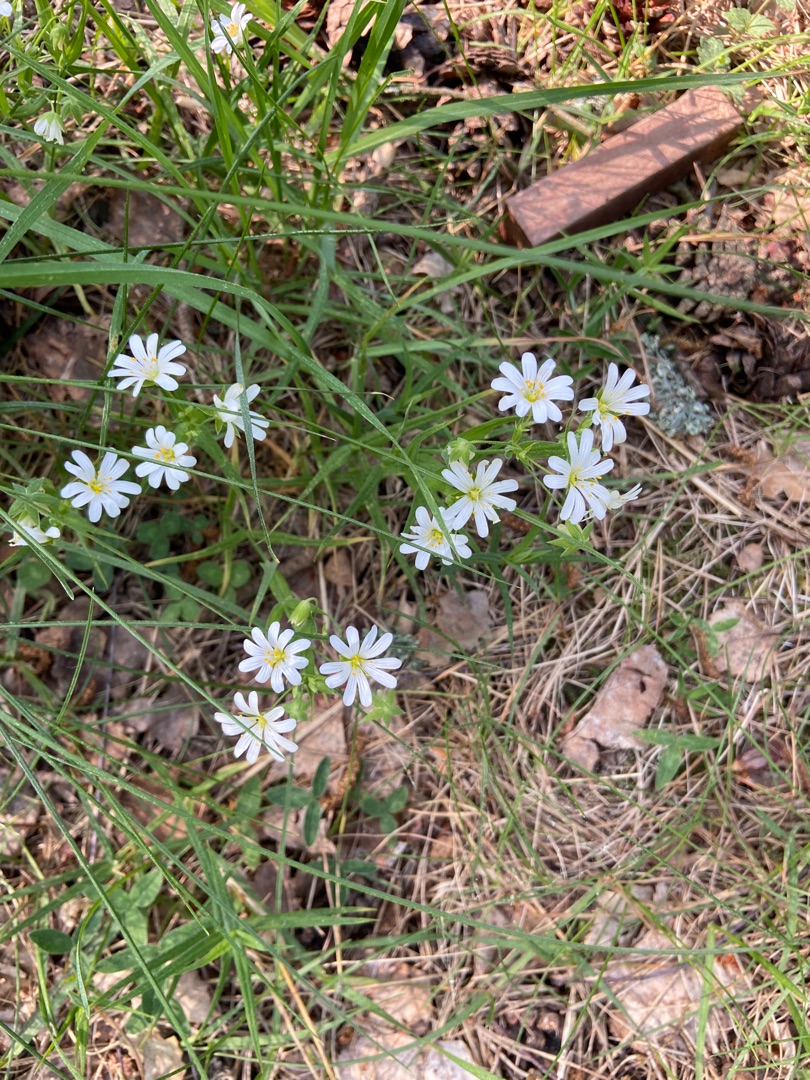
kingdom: Plantae
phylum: Tracheophyta
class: Magnoliopsida
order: Caryophyllales
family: Caryophyllaceae
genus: Rabelera
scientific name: Rabelera holostea
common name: Stor fladstjerne
